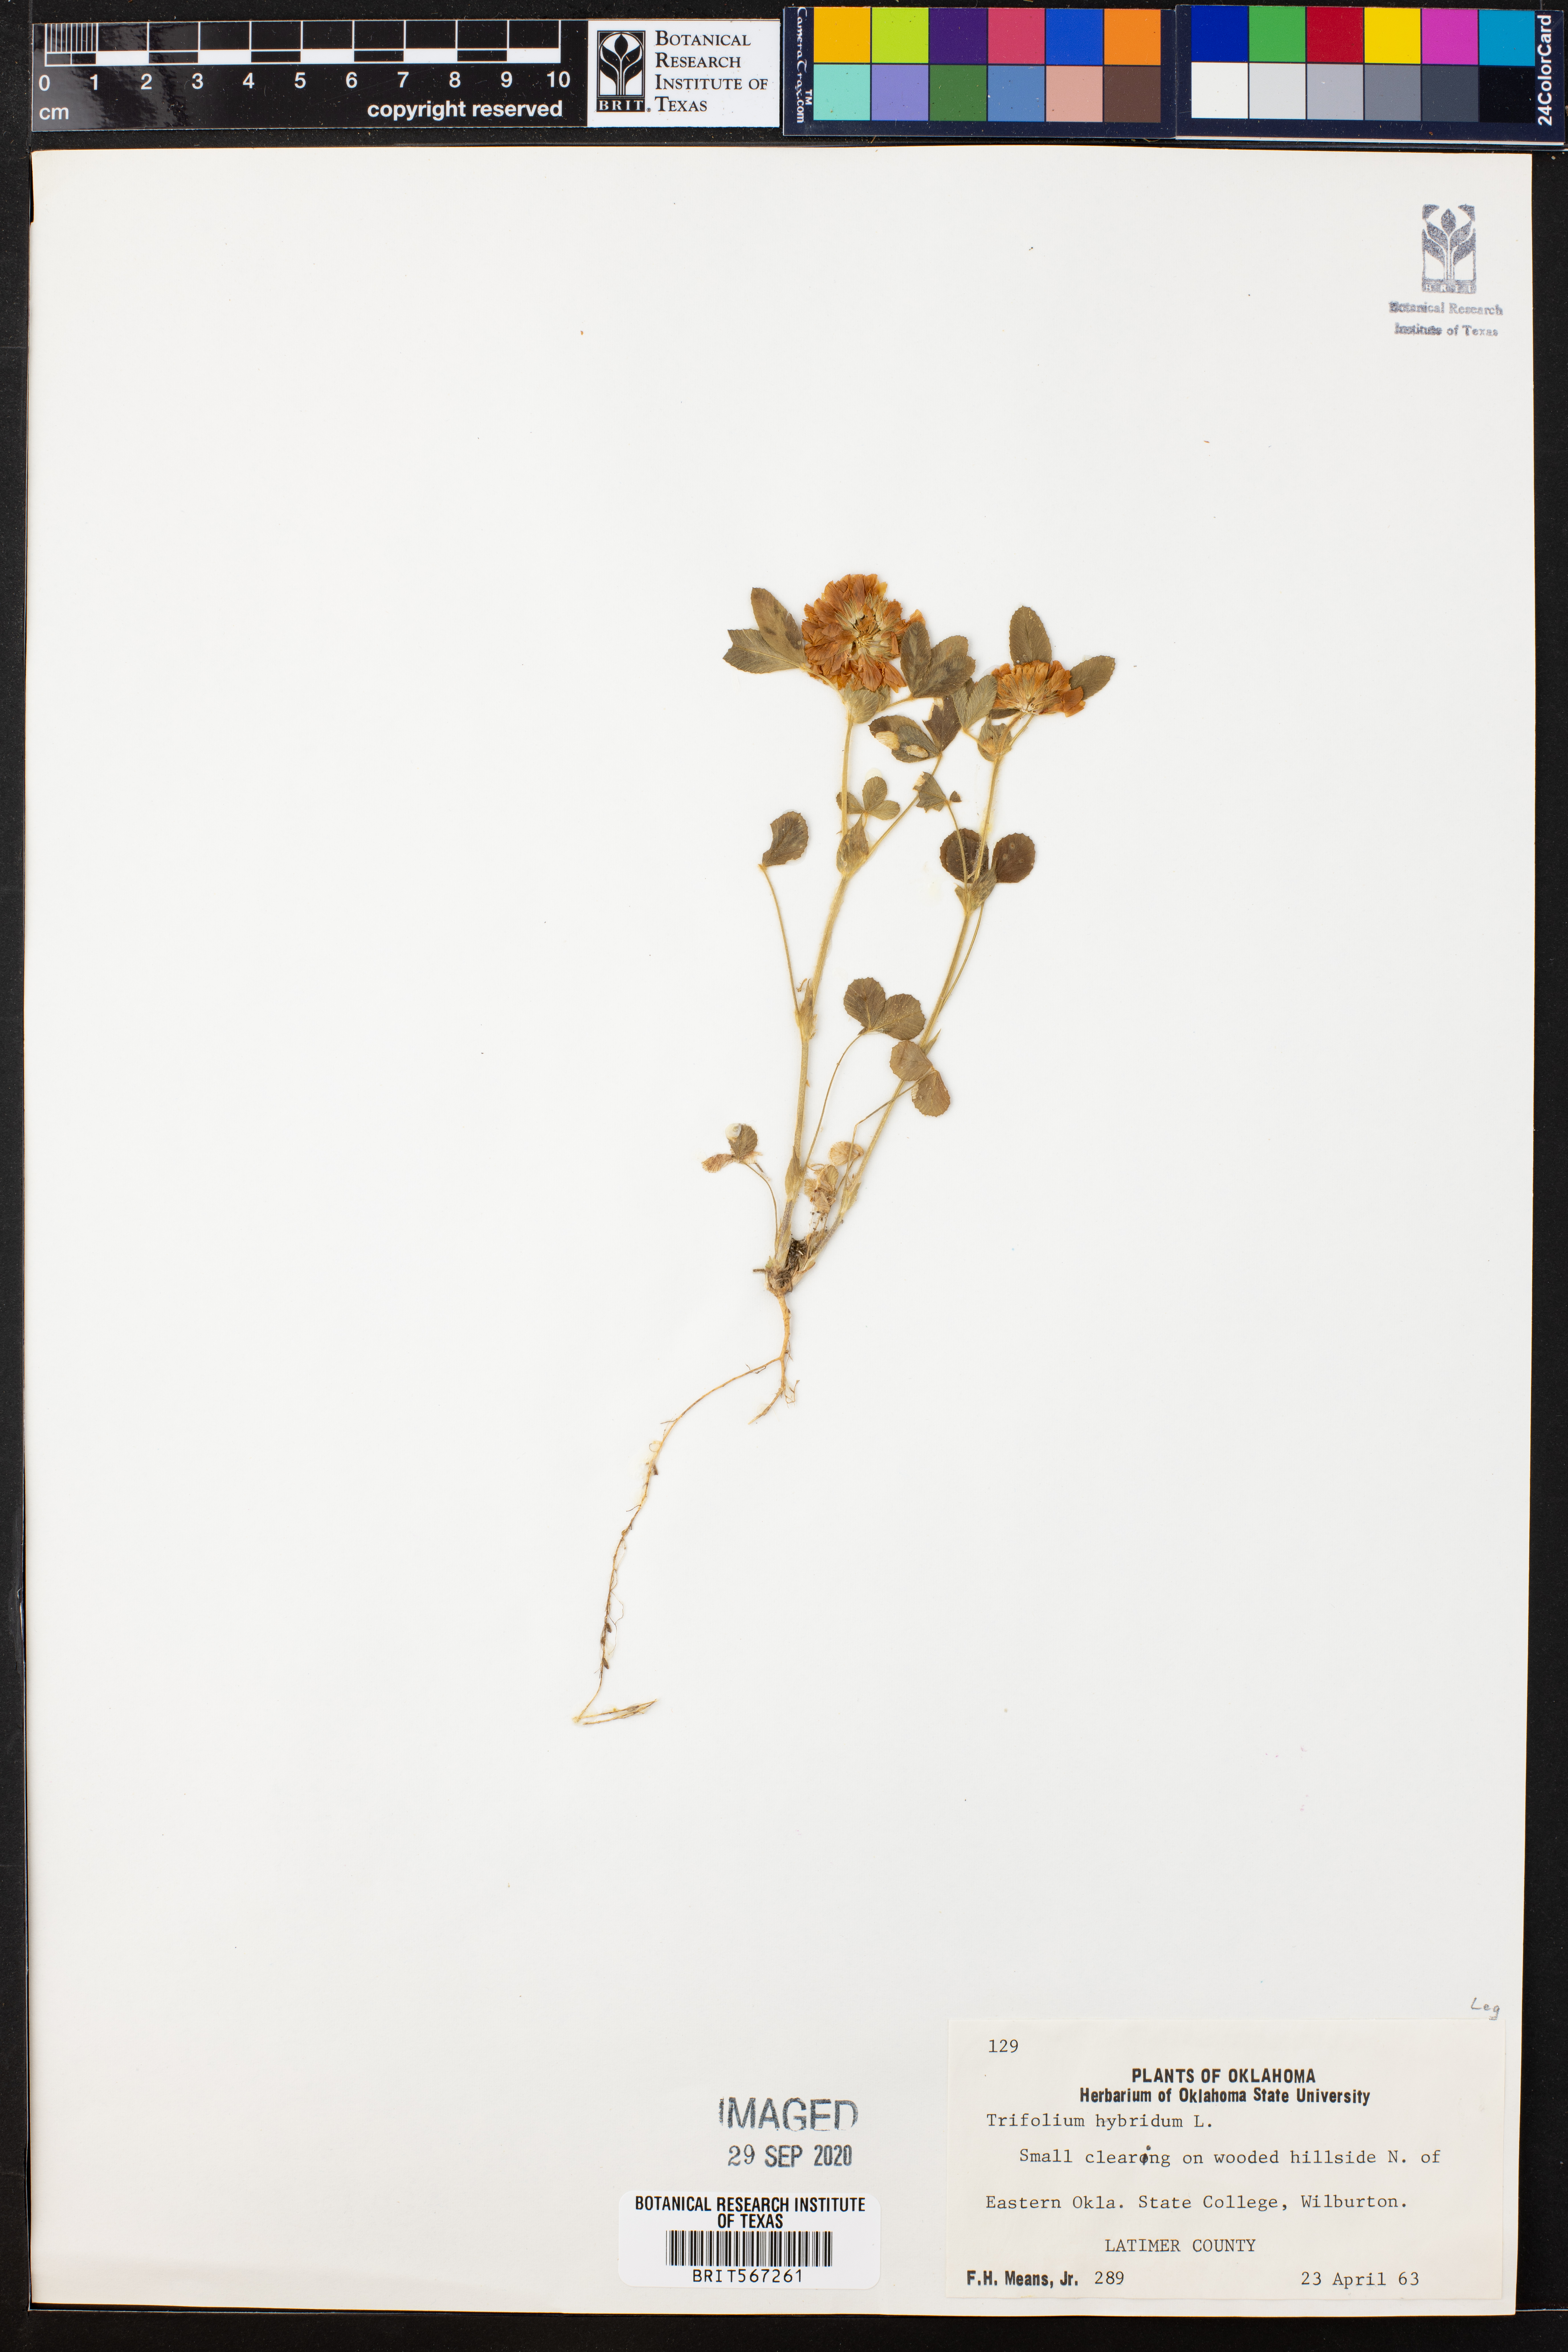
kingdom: Plantae
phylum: Tracheophyta
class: Magnoliopsida
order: Fabales
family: Fabaceae
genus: Trifolium
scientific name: Trifolium hybridum
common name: Alsike clover
